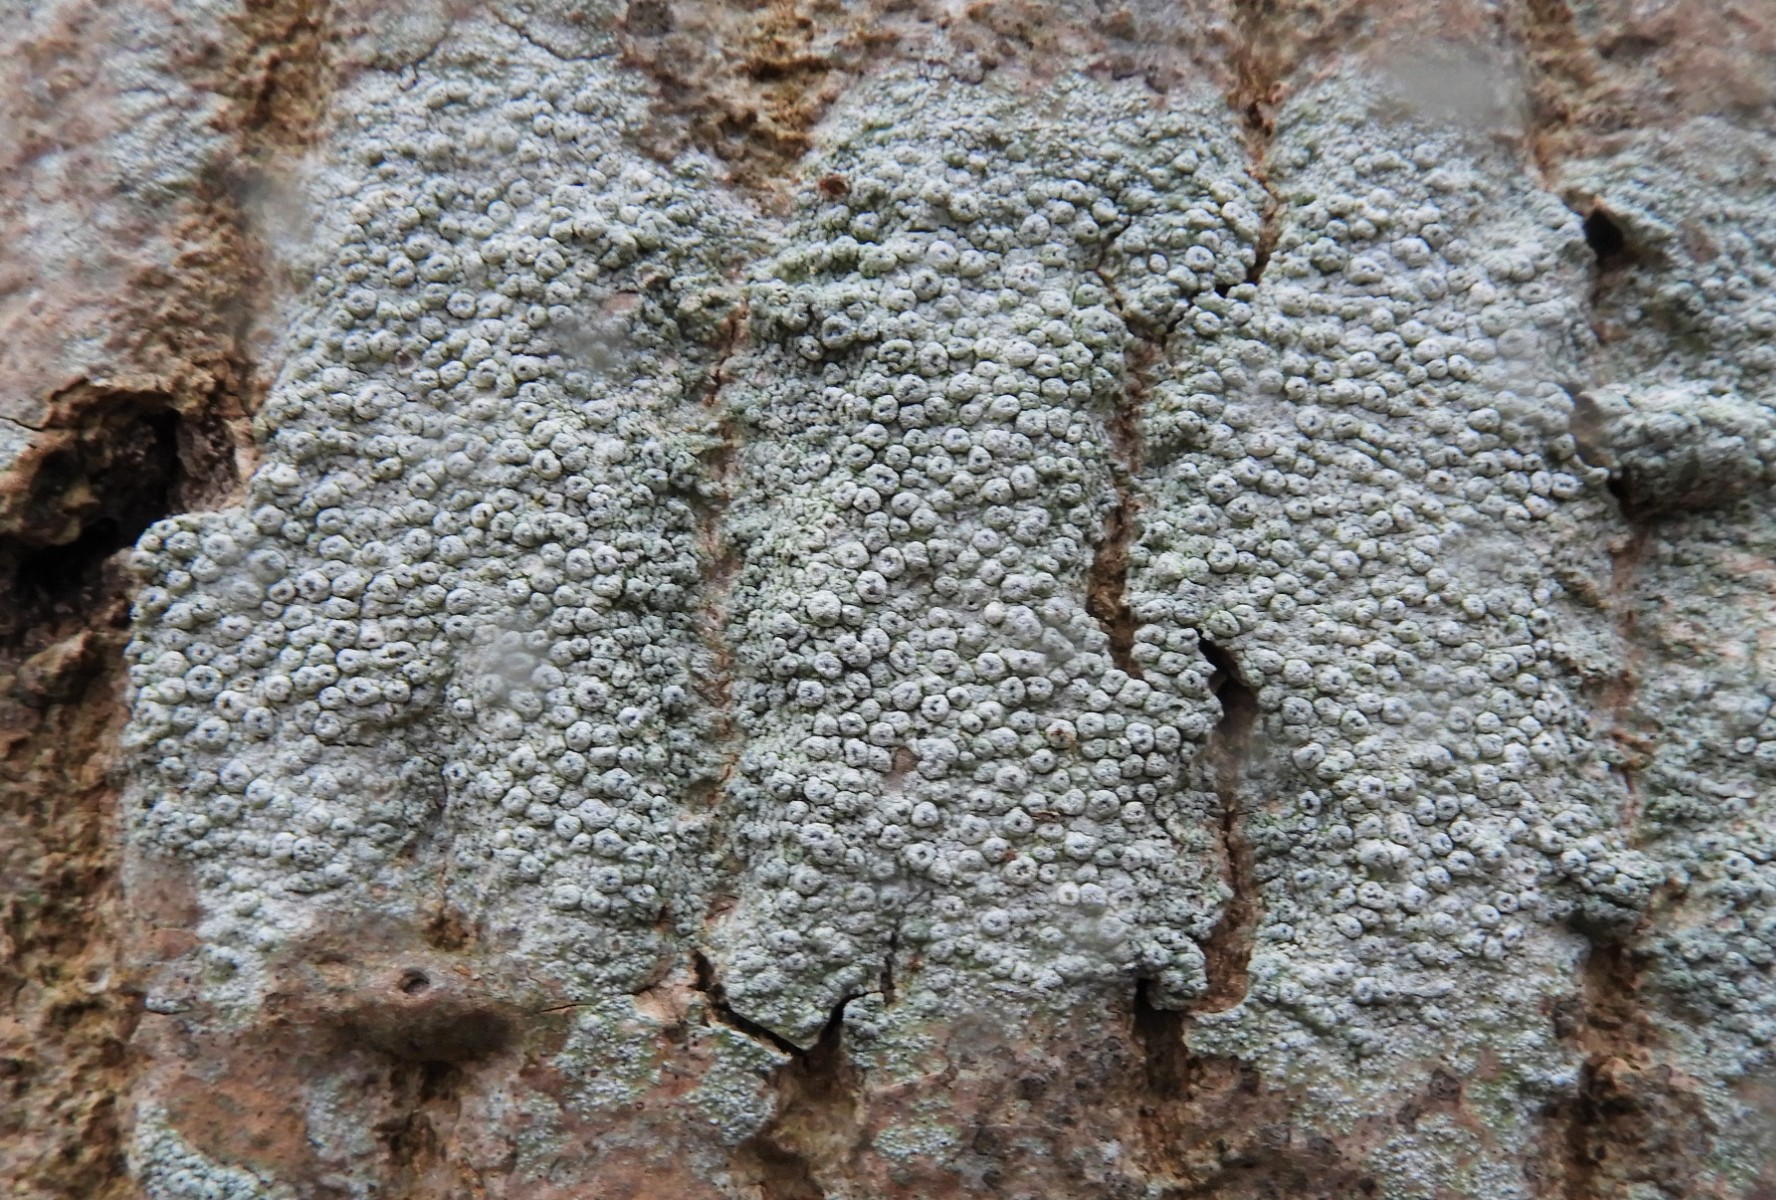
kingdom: Fungi
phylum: Ascomycota
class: Lecanoromycetes
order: Pertusariales
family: Pertusariaceae
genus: Pertusaria
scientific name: Pertusaria pertusa
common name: almindelig prikvortelav
